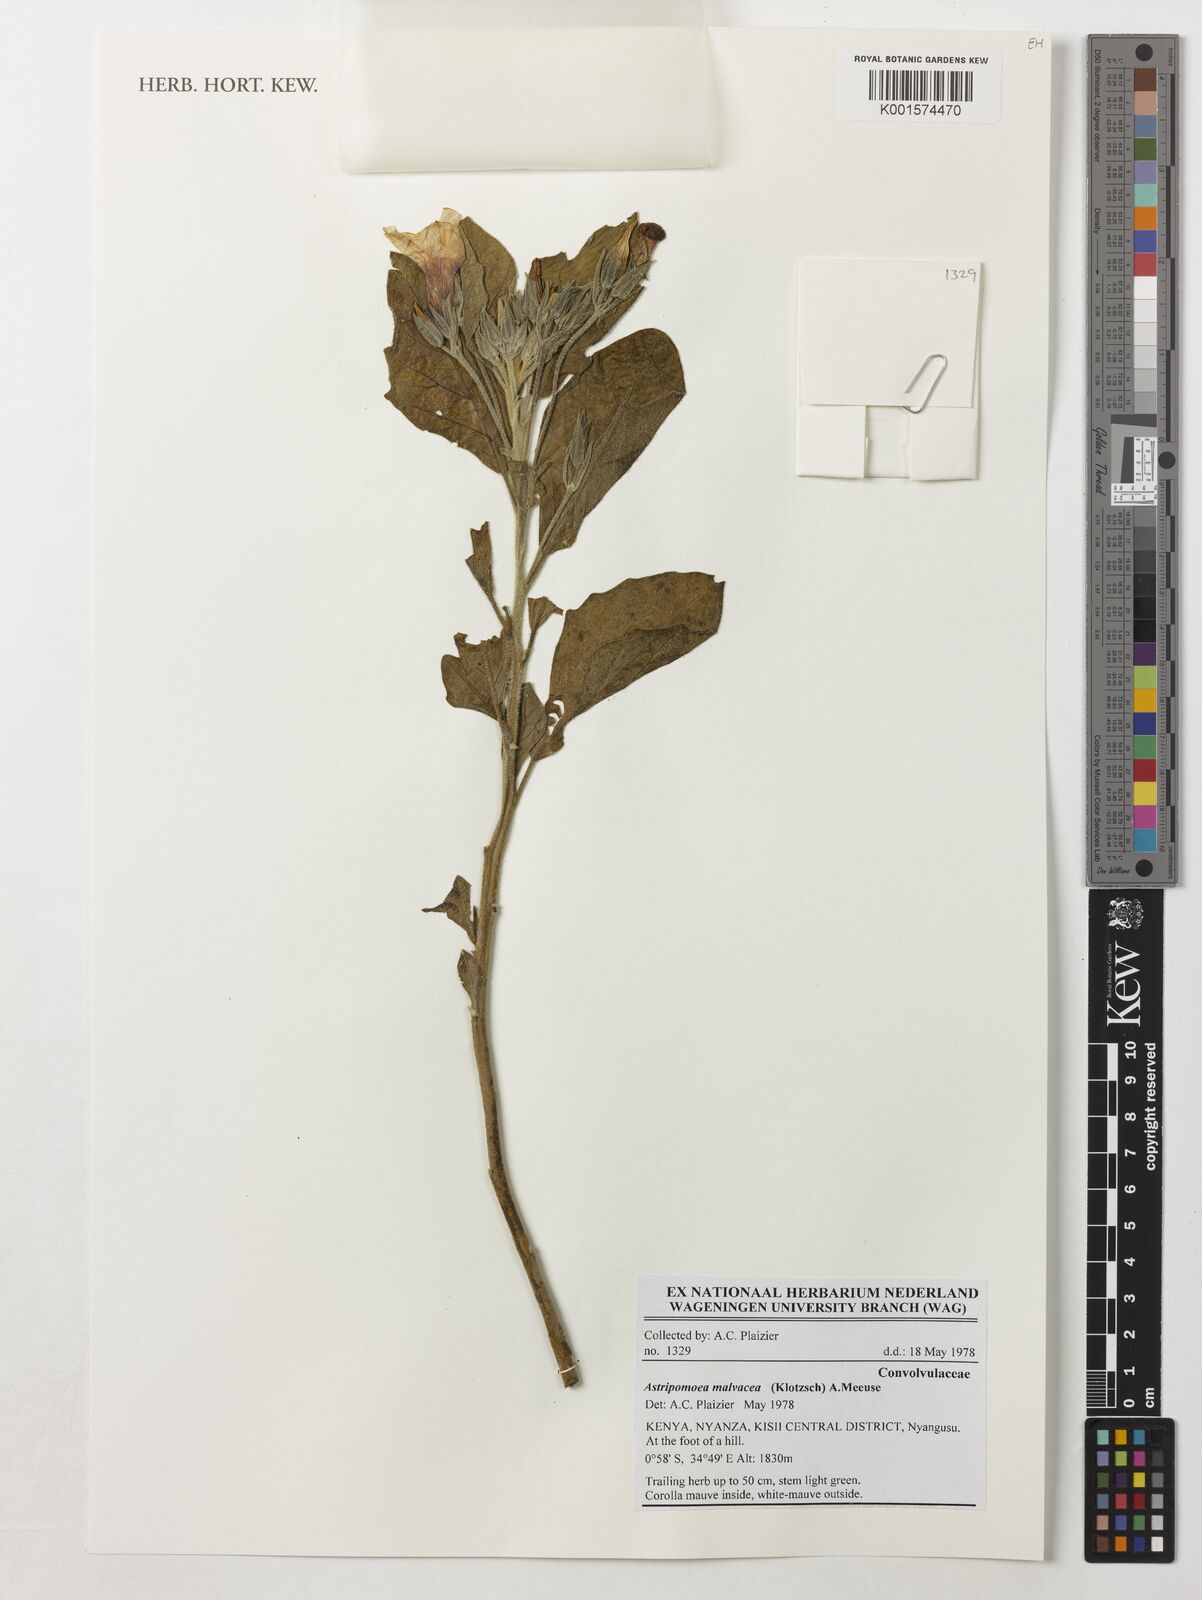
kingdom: Plantae
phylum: Tracheophyta
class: Magnoliopsida
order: Solanales
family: Convolvulaceae
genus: Astripomoea
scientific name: Astripomoea malvacea
